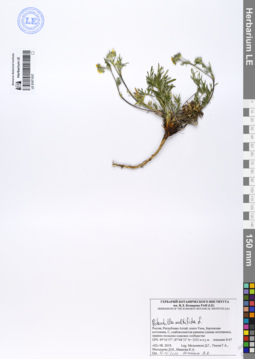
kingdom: Plantae
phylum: Tracheophyta
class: Magnoliopsida
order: Rosales
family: Rosaceae
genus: Potentilla
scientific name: Potentilla multifida
